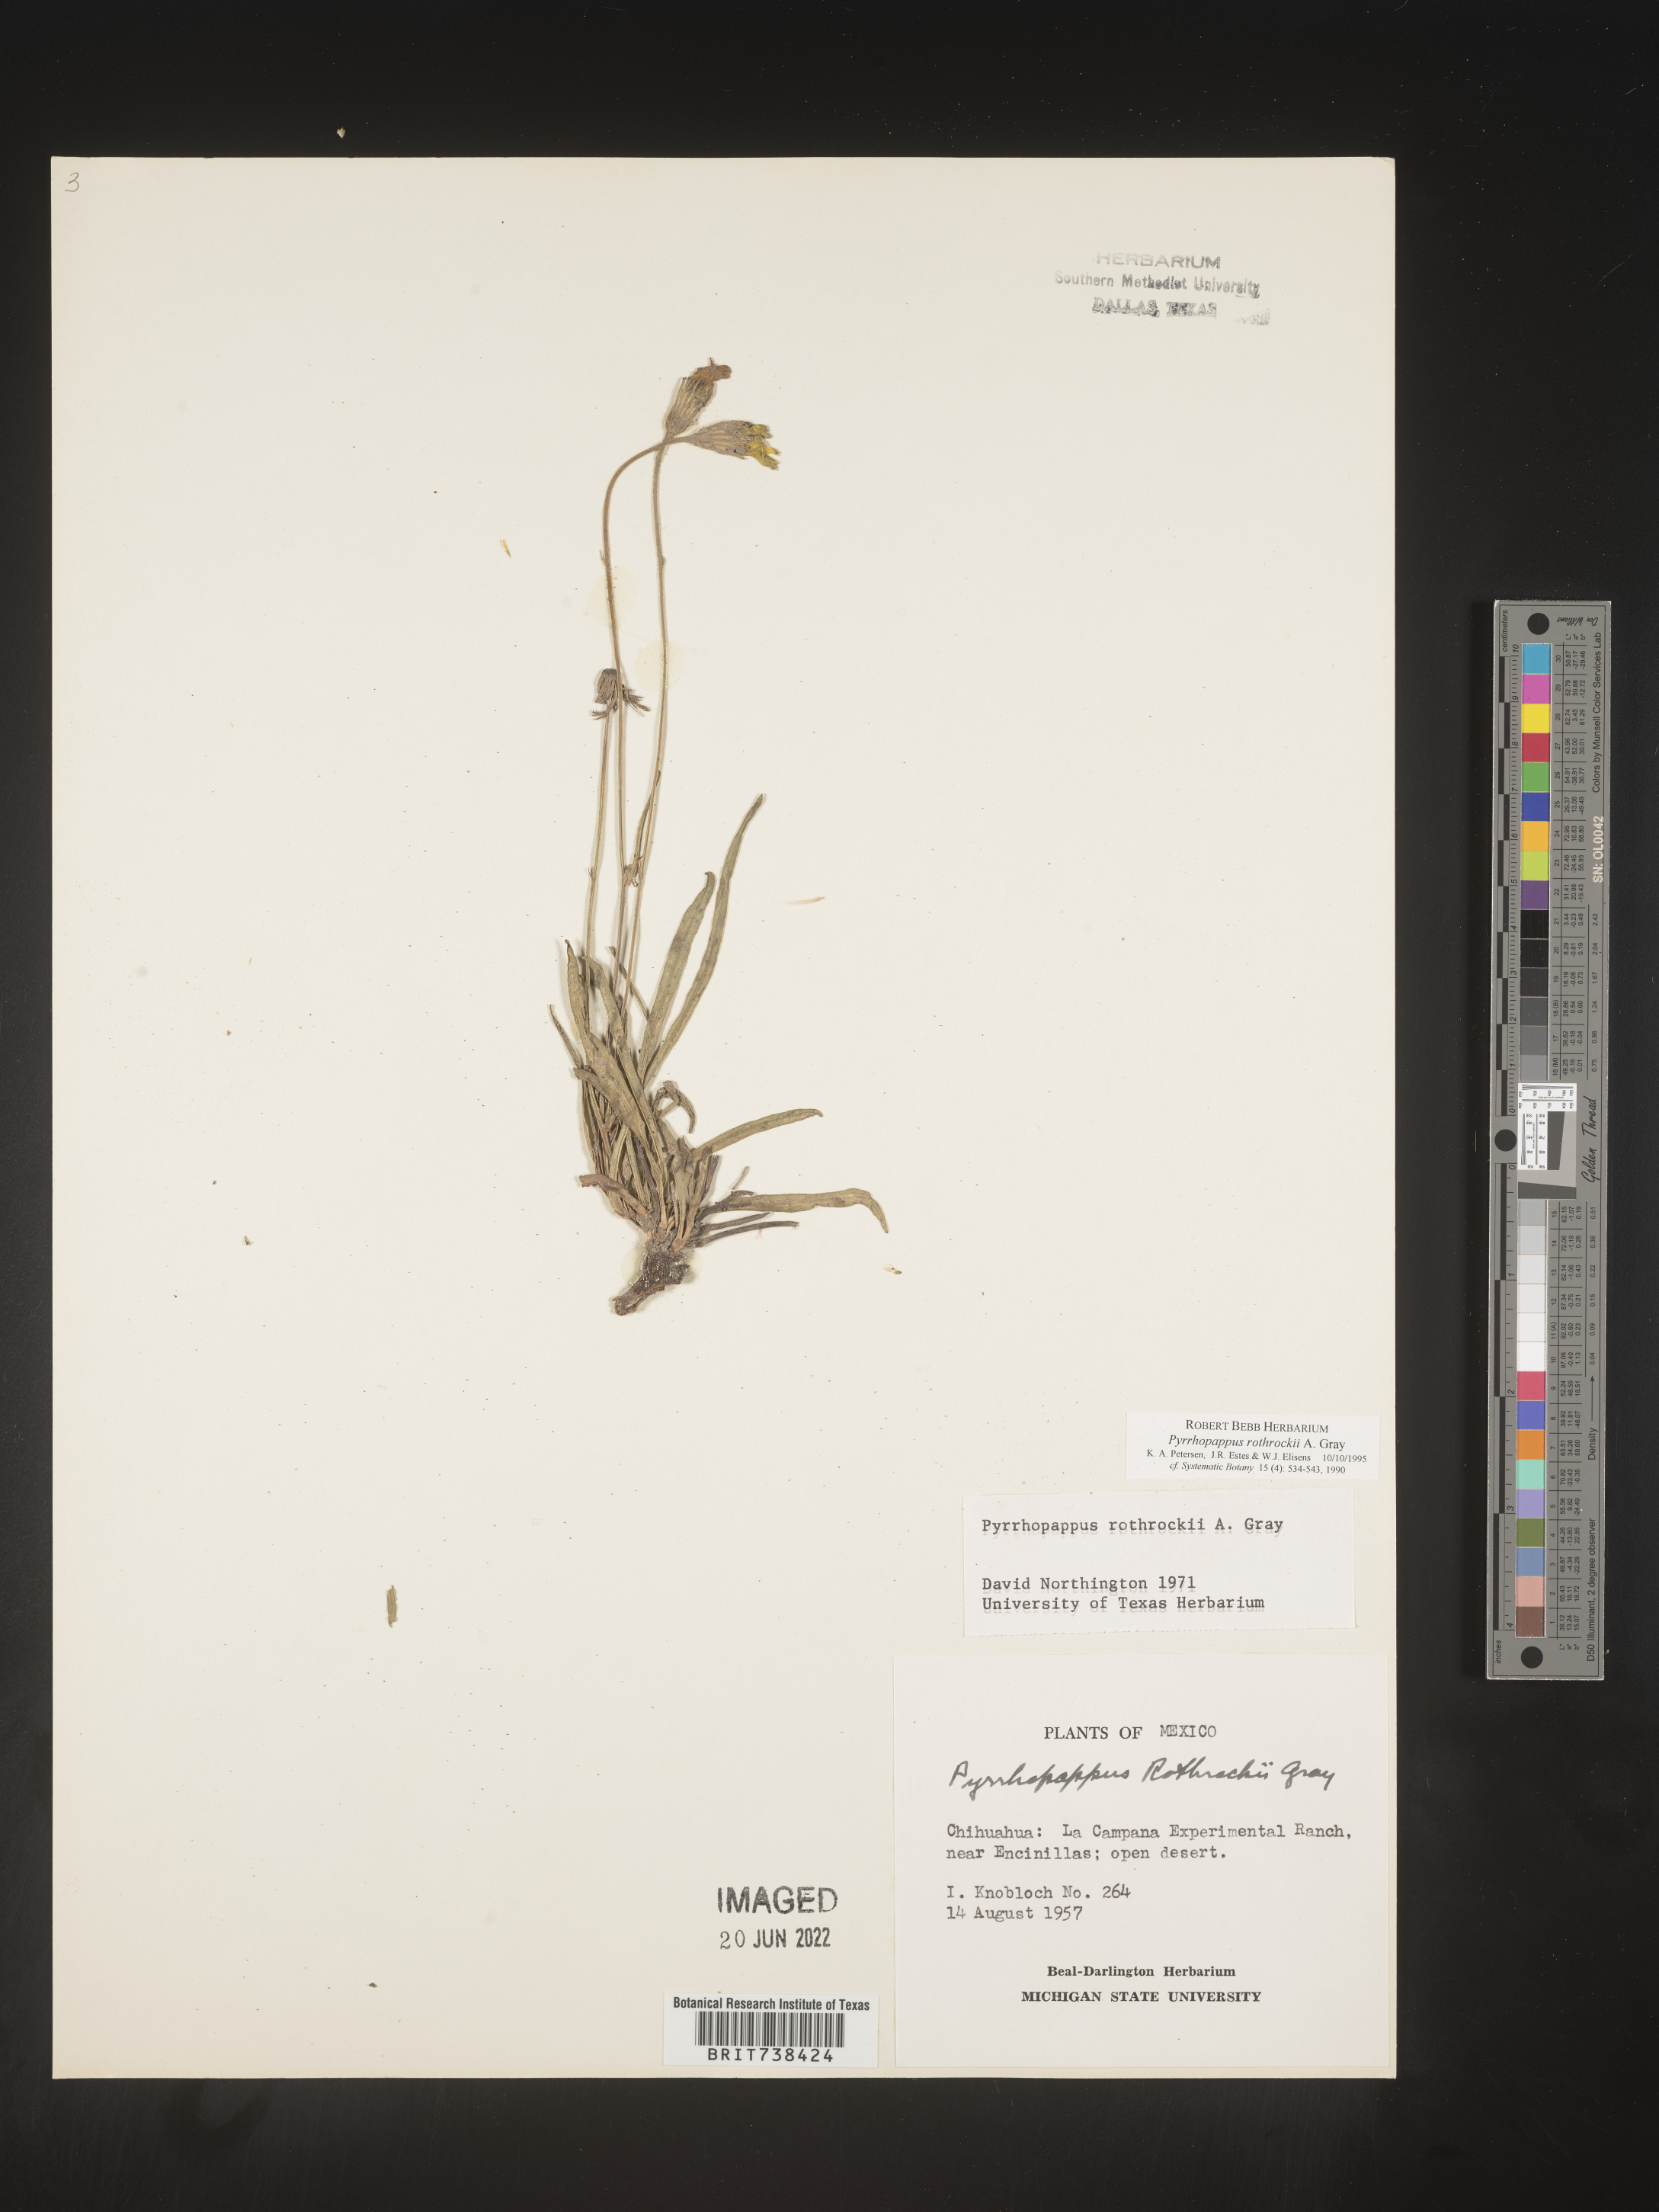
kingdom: Plantae
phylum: Tracheophyta
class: Magnoliopsida
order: Asterales
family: Asteraceae
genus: Pyrrhopappus
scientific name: Pyrrhopappus
